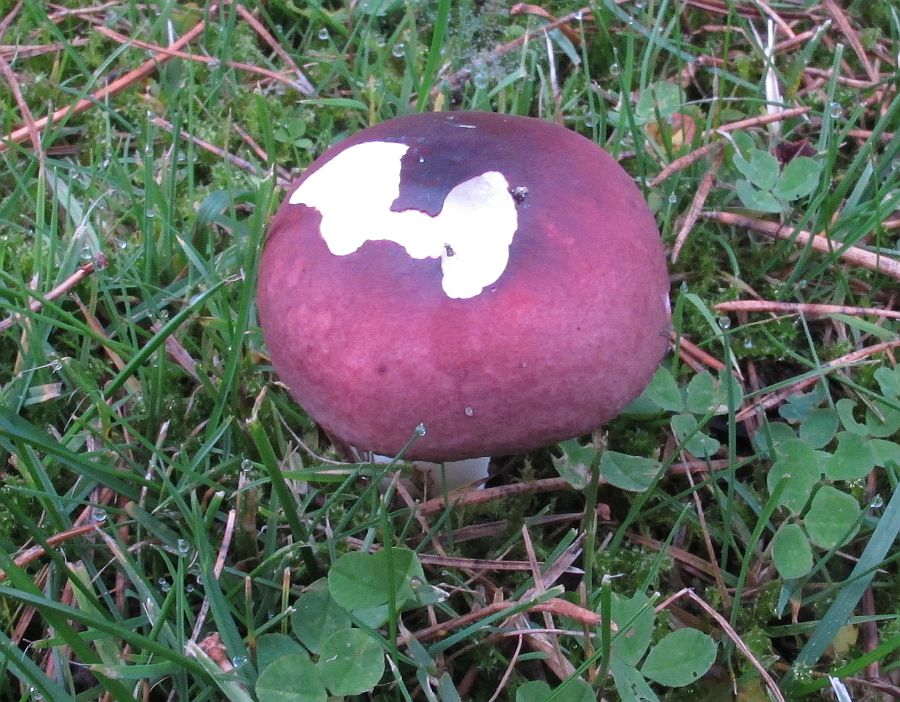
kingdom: Fungi
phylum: Basidiomycota
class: Agaricomycetes
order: Russulales
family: Russulaceae
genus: Russula
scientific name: Russula cessans
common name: fyrre-skørhat
